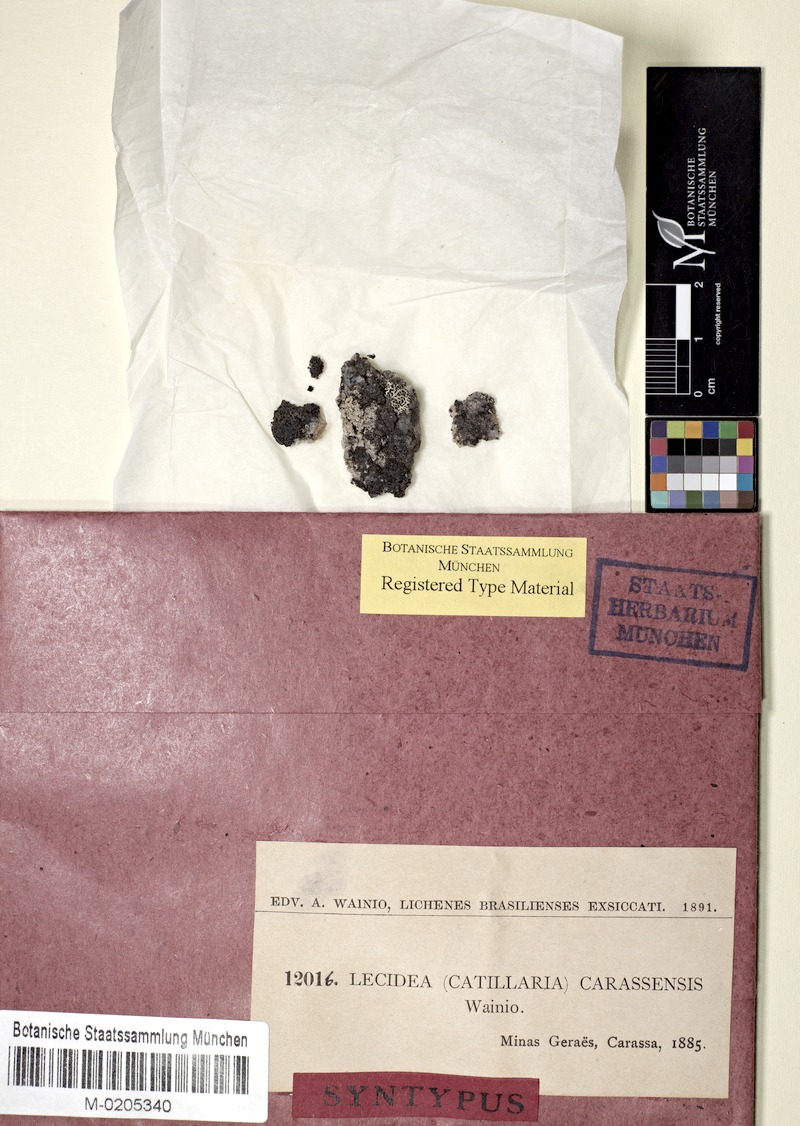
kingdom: Fungi
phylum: Ascomycota
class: Lecanoromycetes
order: Lecanorales
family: Catillariaceae
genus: Catillaria
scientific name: Catillaria
